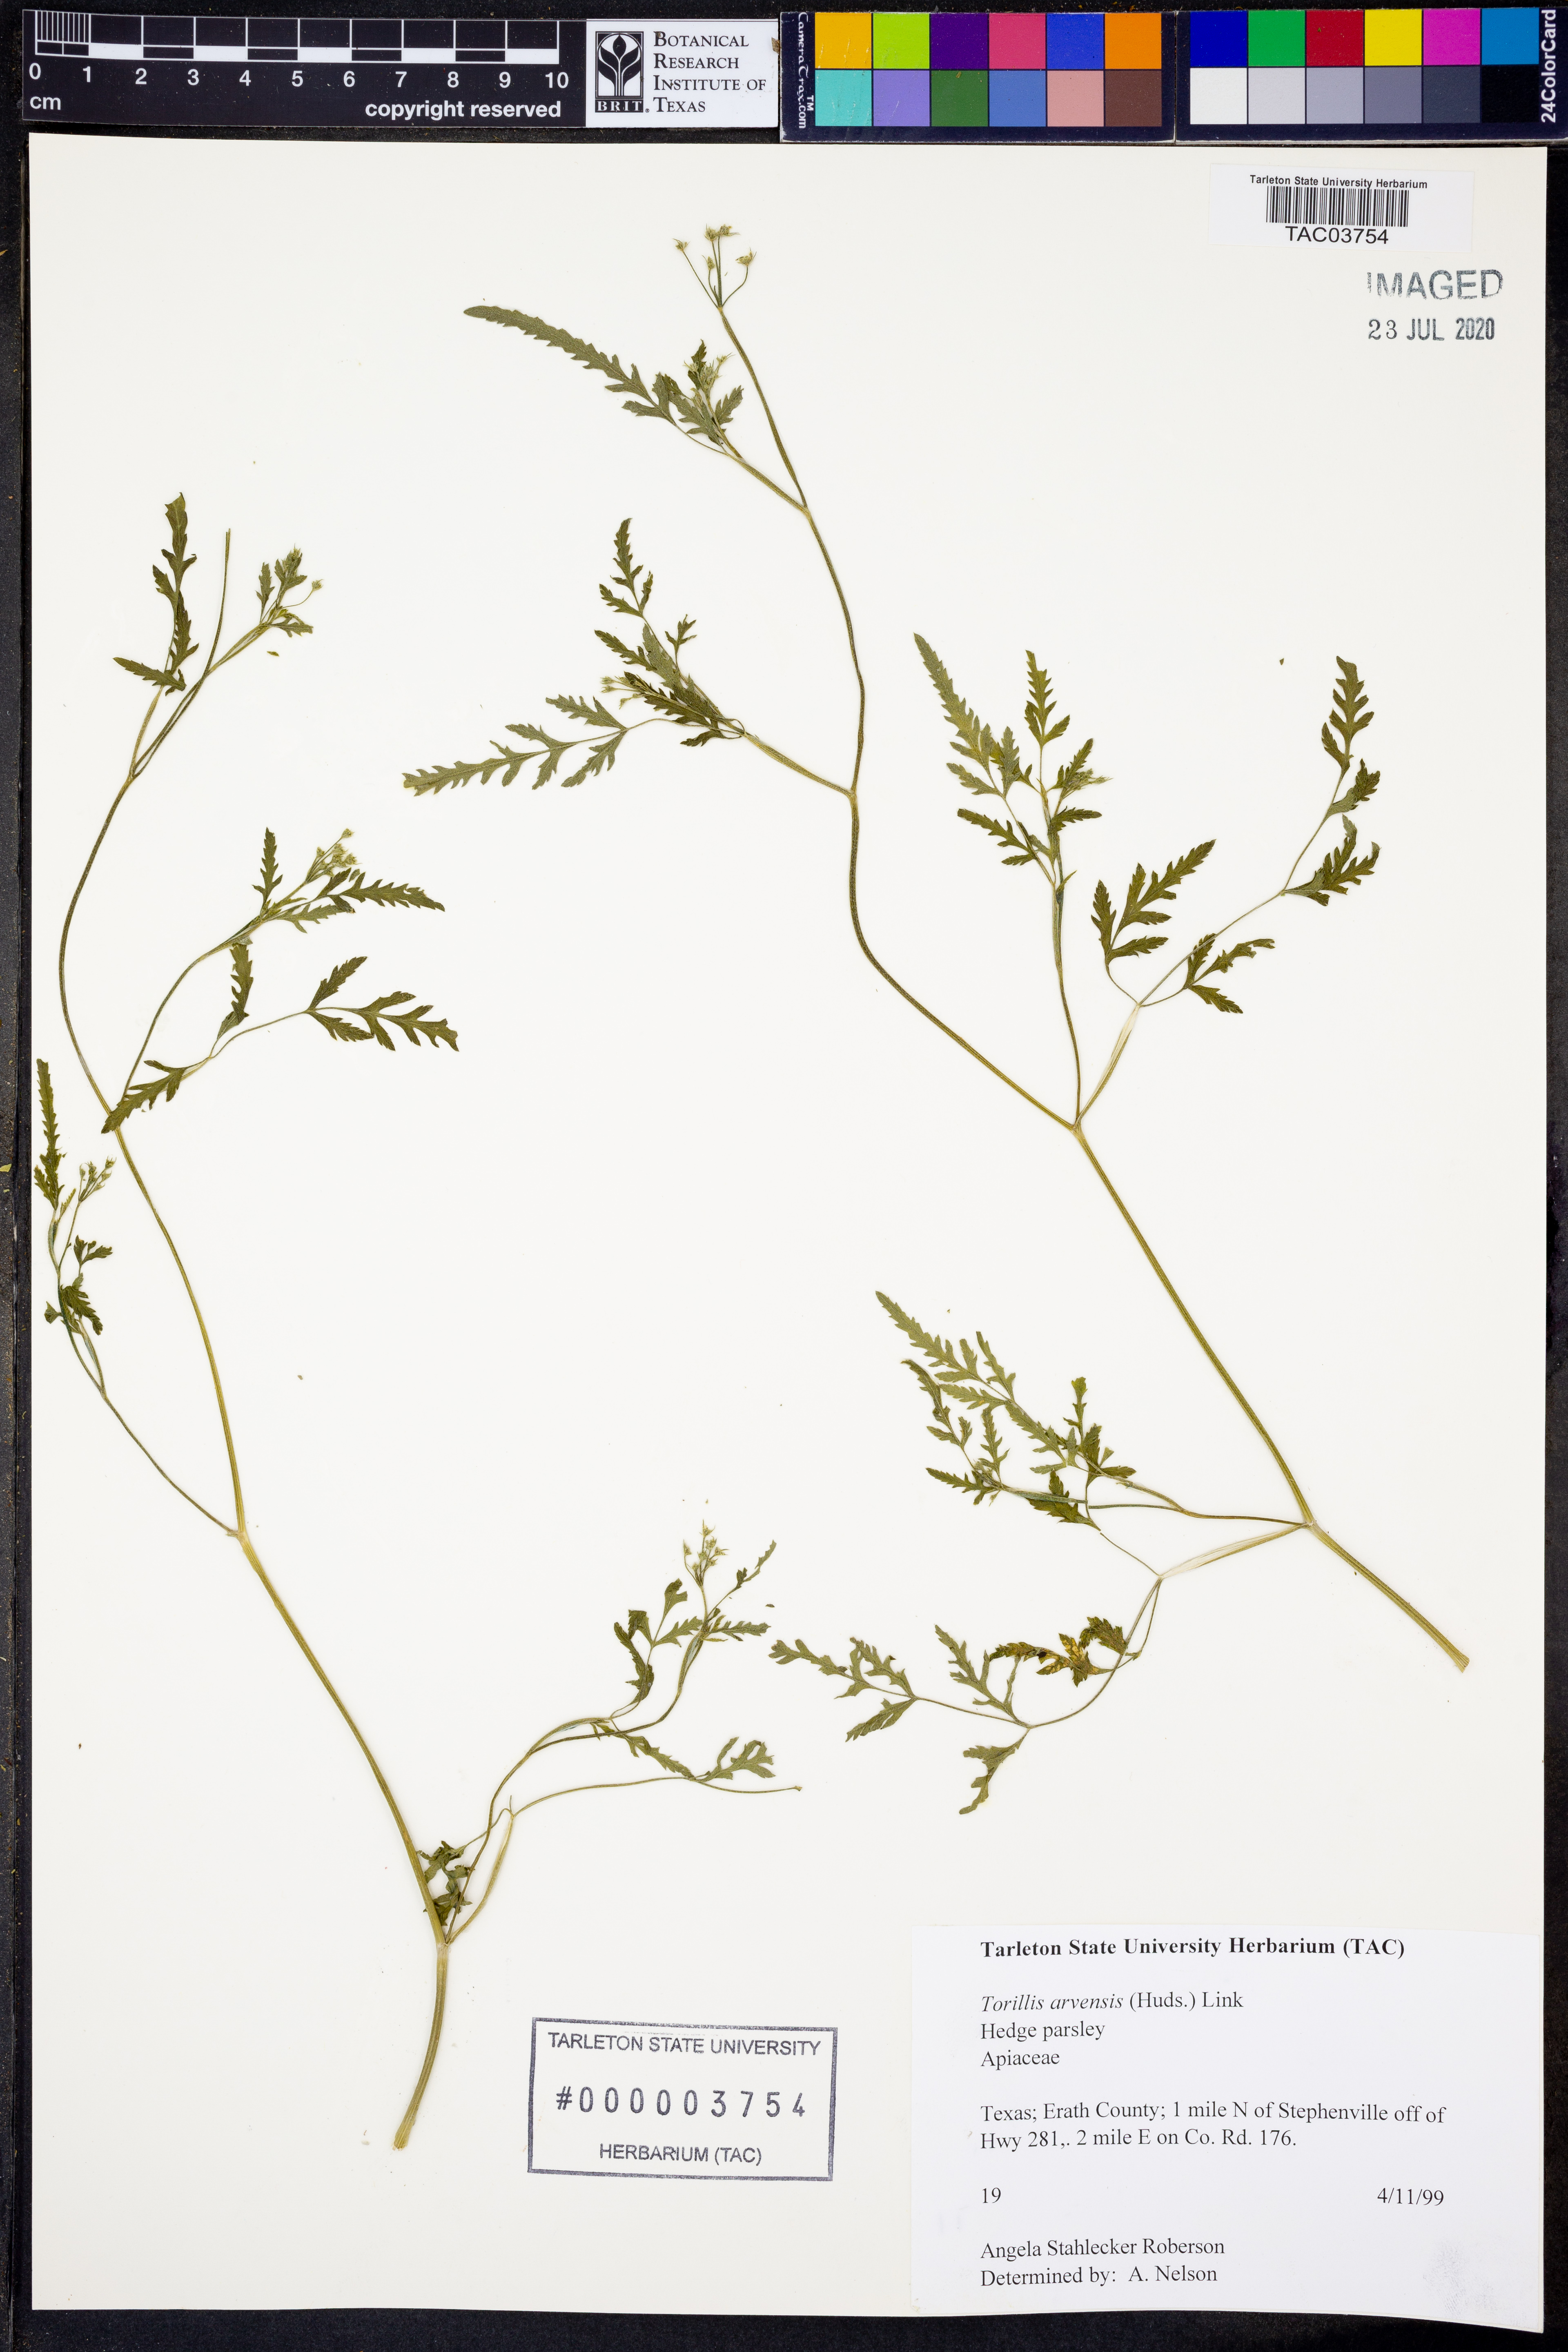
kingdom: Plantae
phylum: Tracheophyta
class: Magnoliopsida
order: Apiales
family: Apiaceae
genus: Torilis
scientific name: Torilis arvensis
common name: Spreading hedge-parsley
